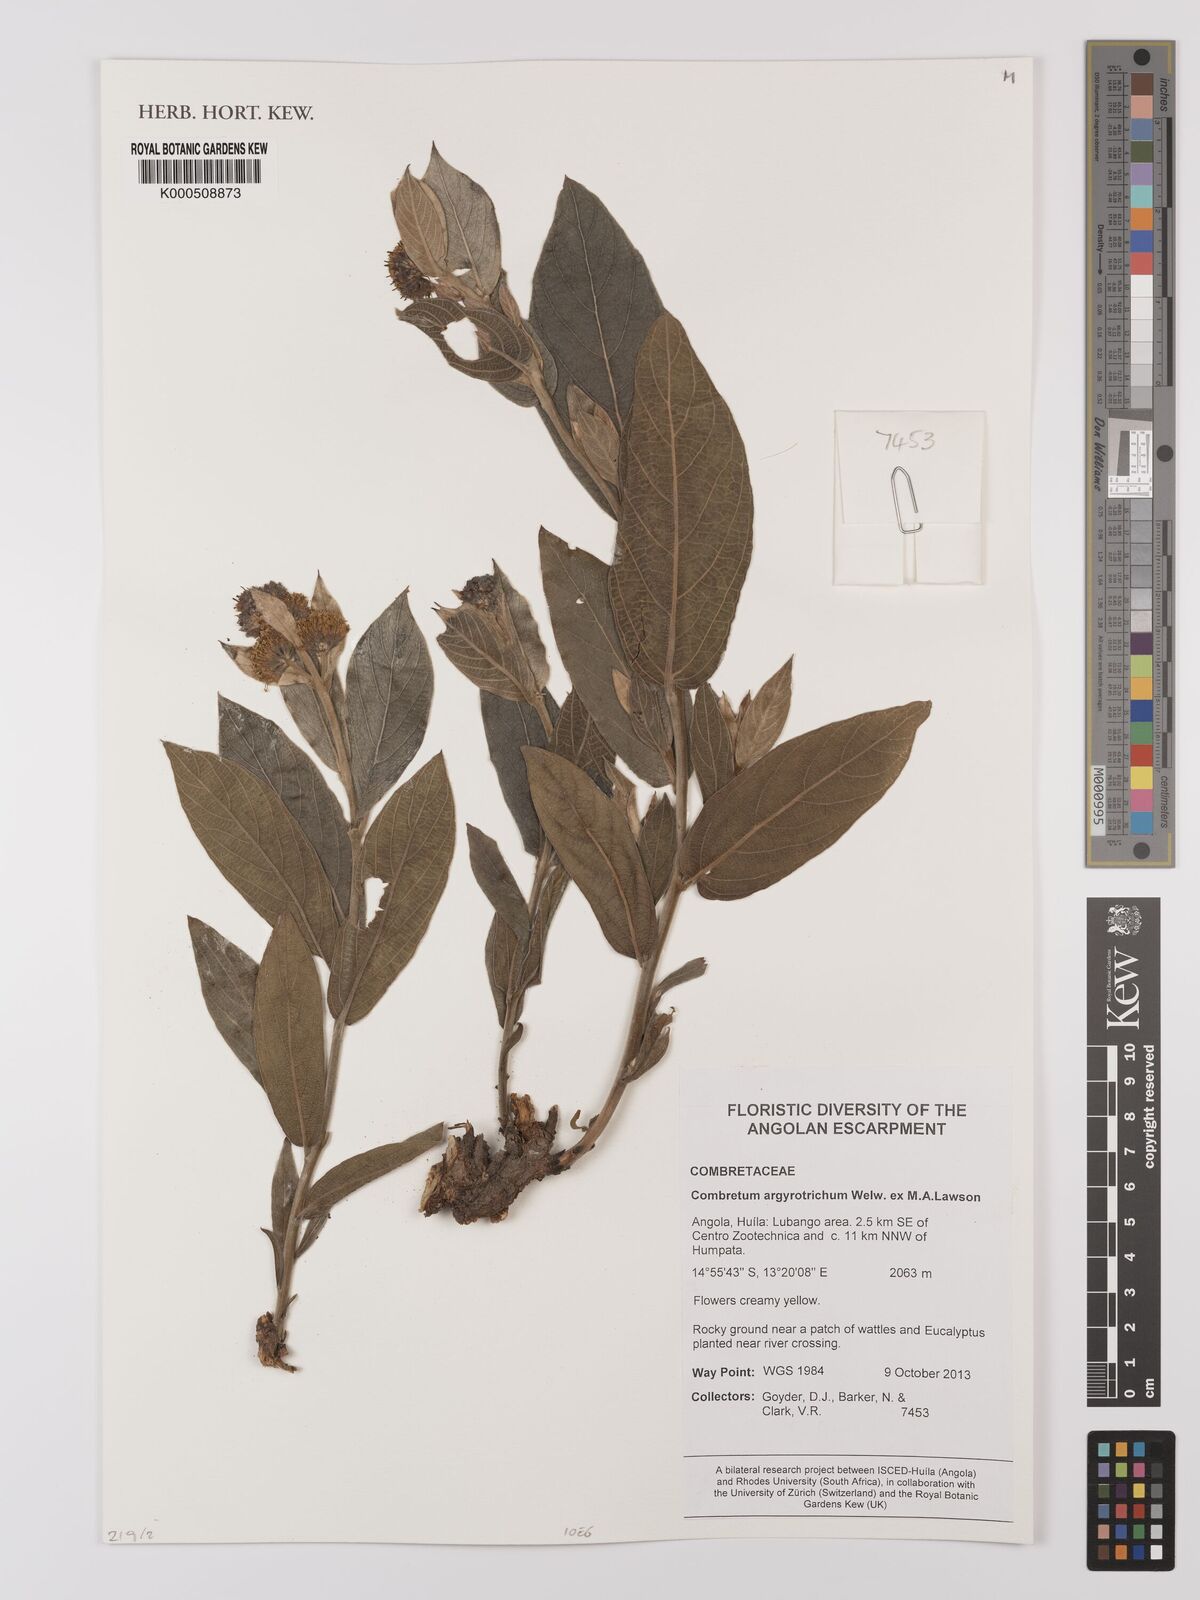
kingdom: Plantae
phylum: Tracheophyta
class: Magnoliopsida
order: Myrtales
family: Combretaceae
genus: Combretum
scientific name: Combretum
